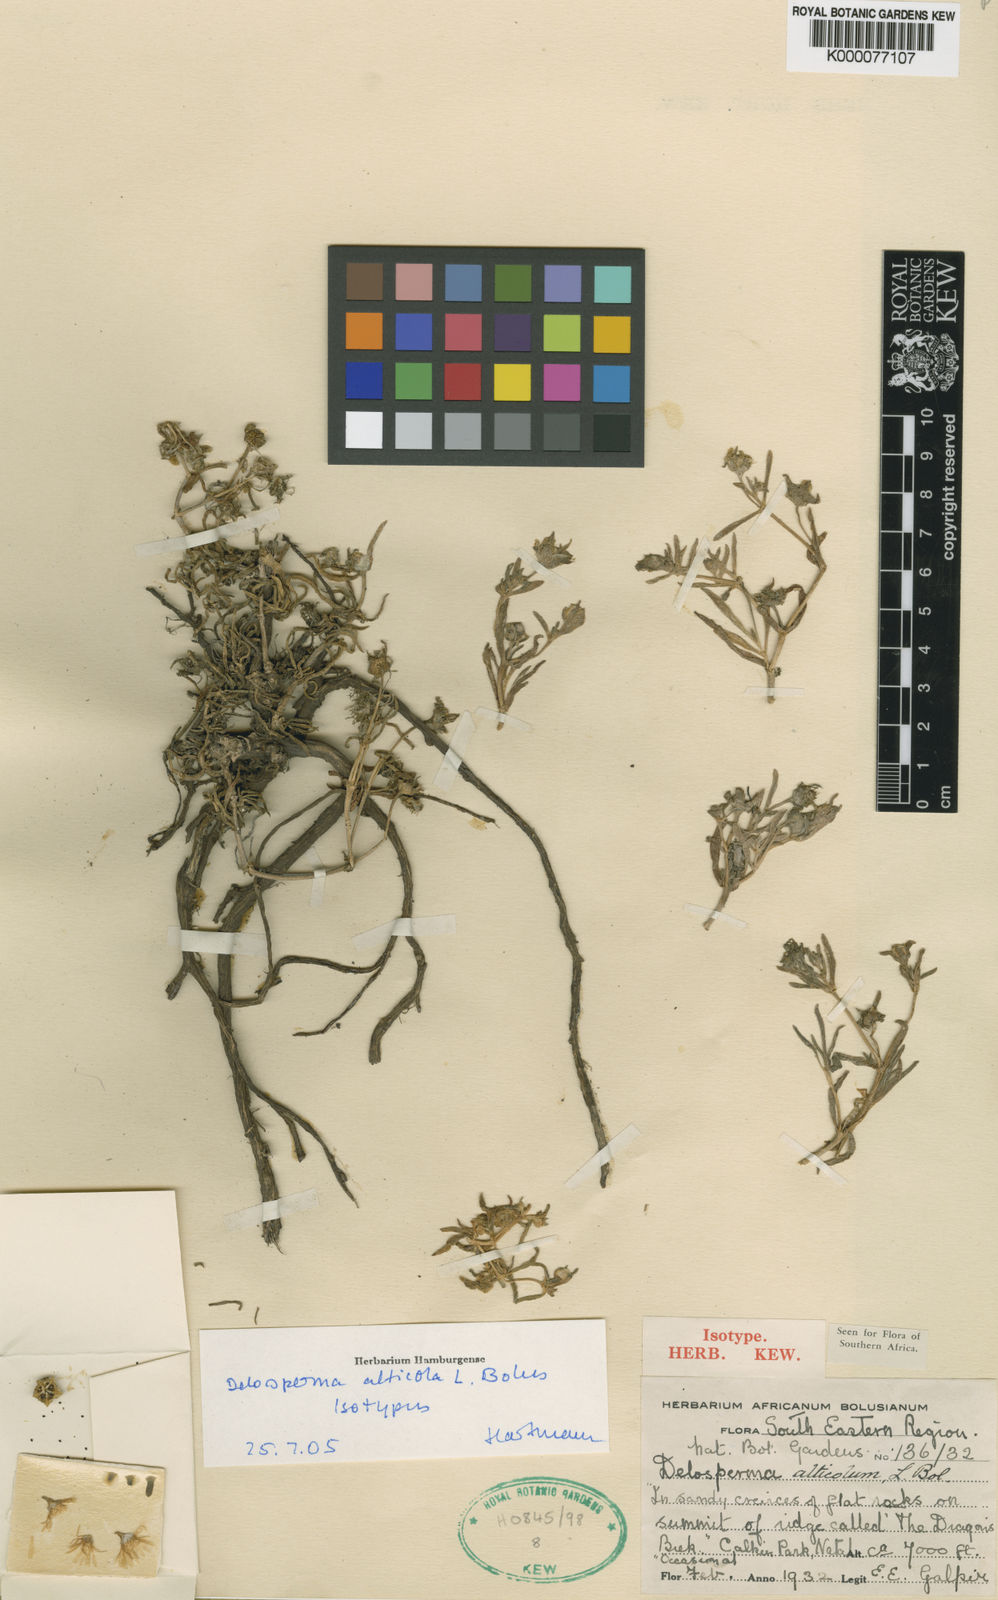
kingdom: Plantae
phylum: Tracheophyta
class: Magnoliopsida
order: Caryophyllales
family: Aizoaceae
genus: Delosperma
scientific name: Delosperma alticola
